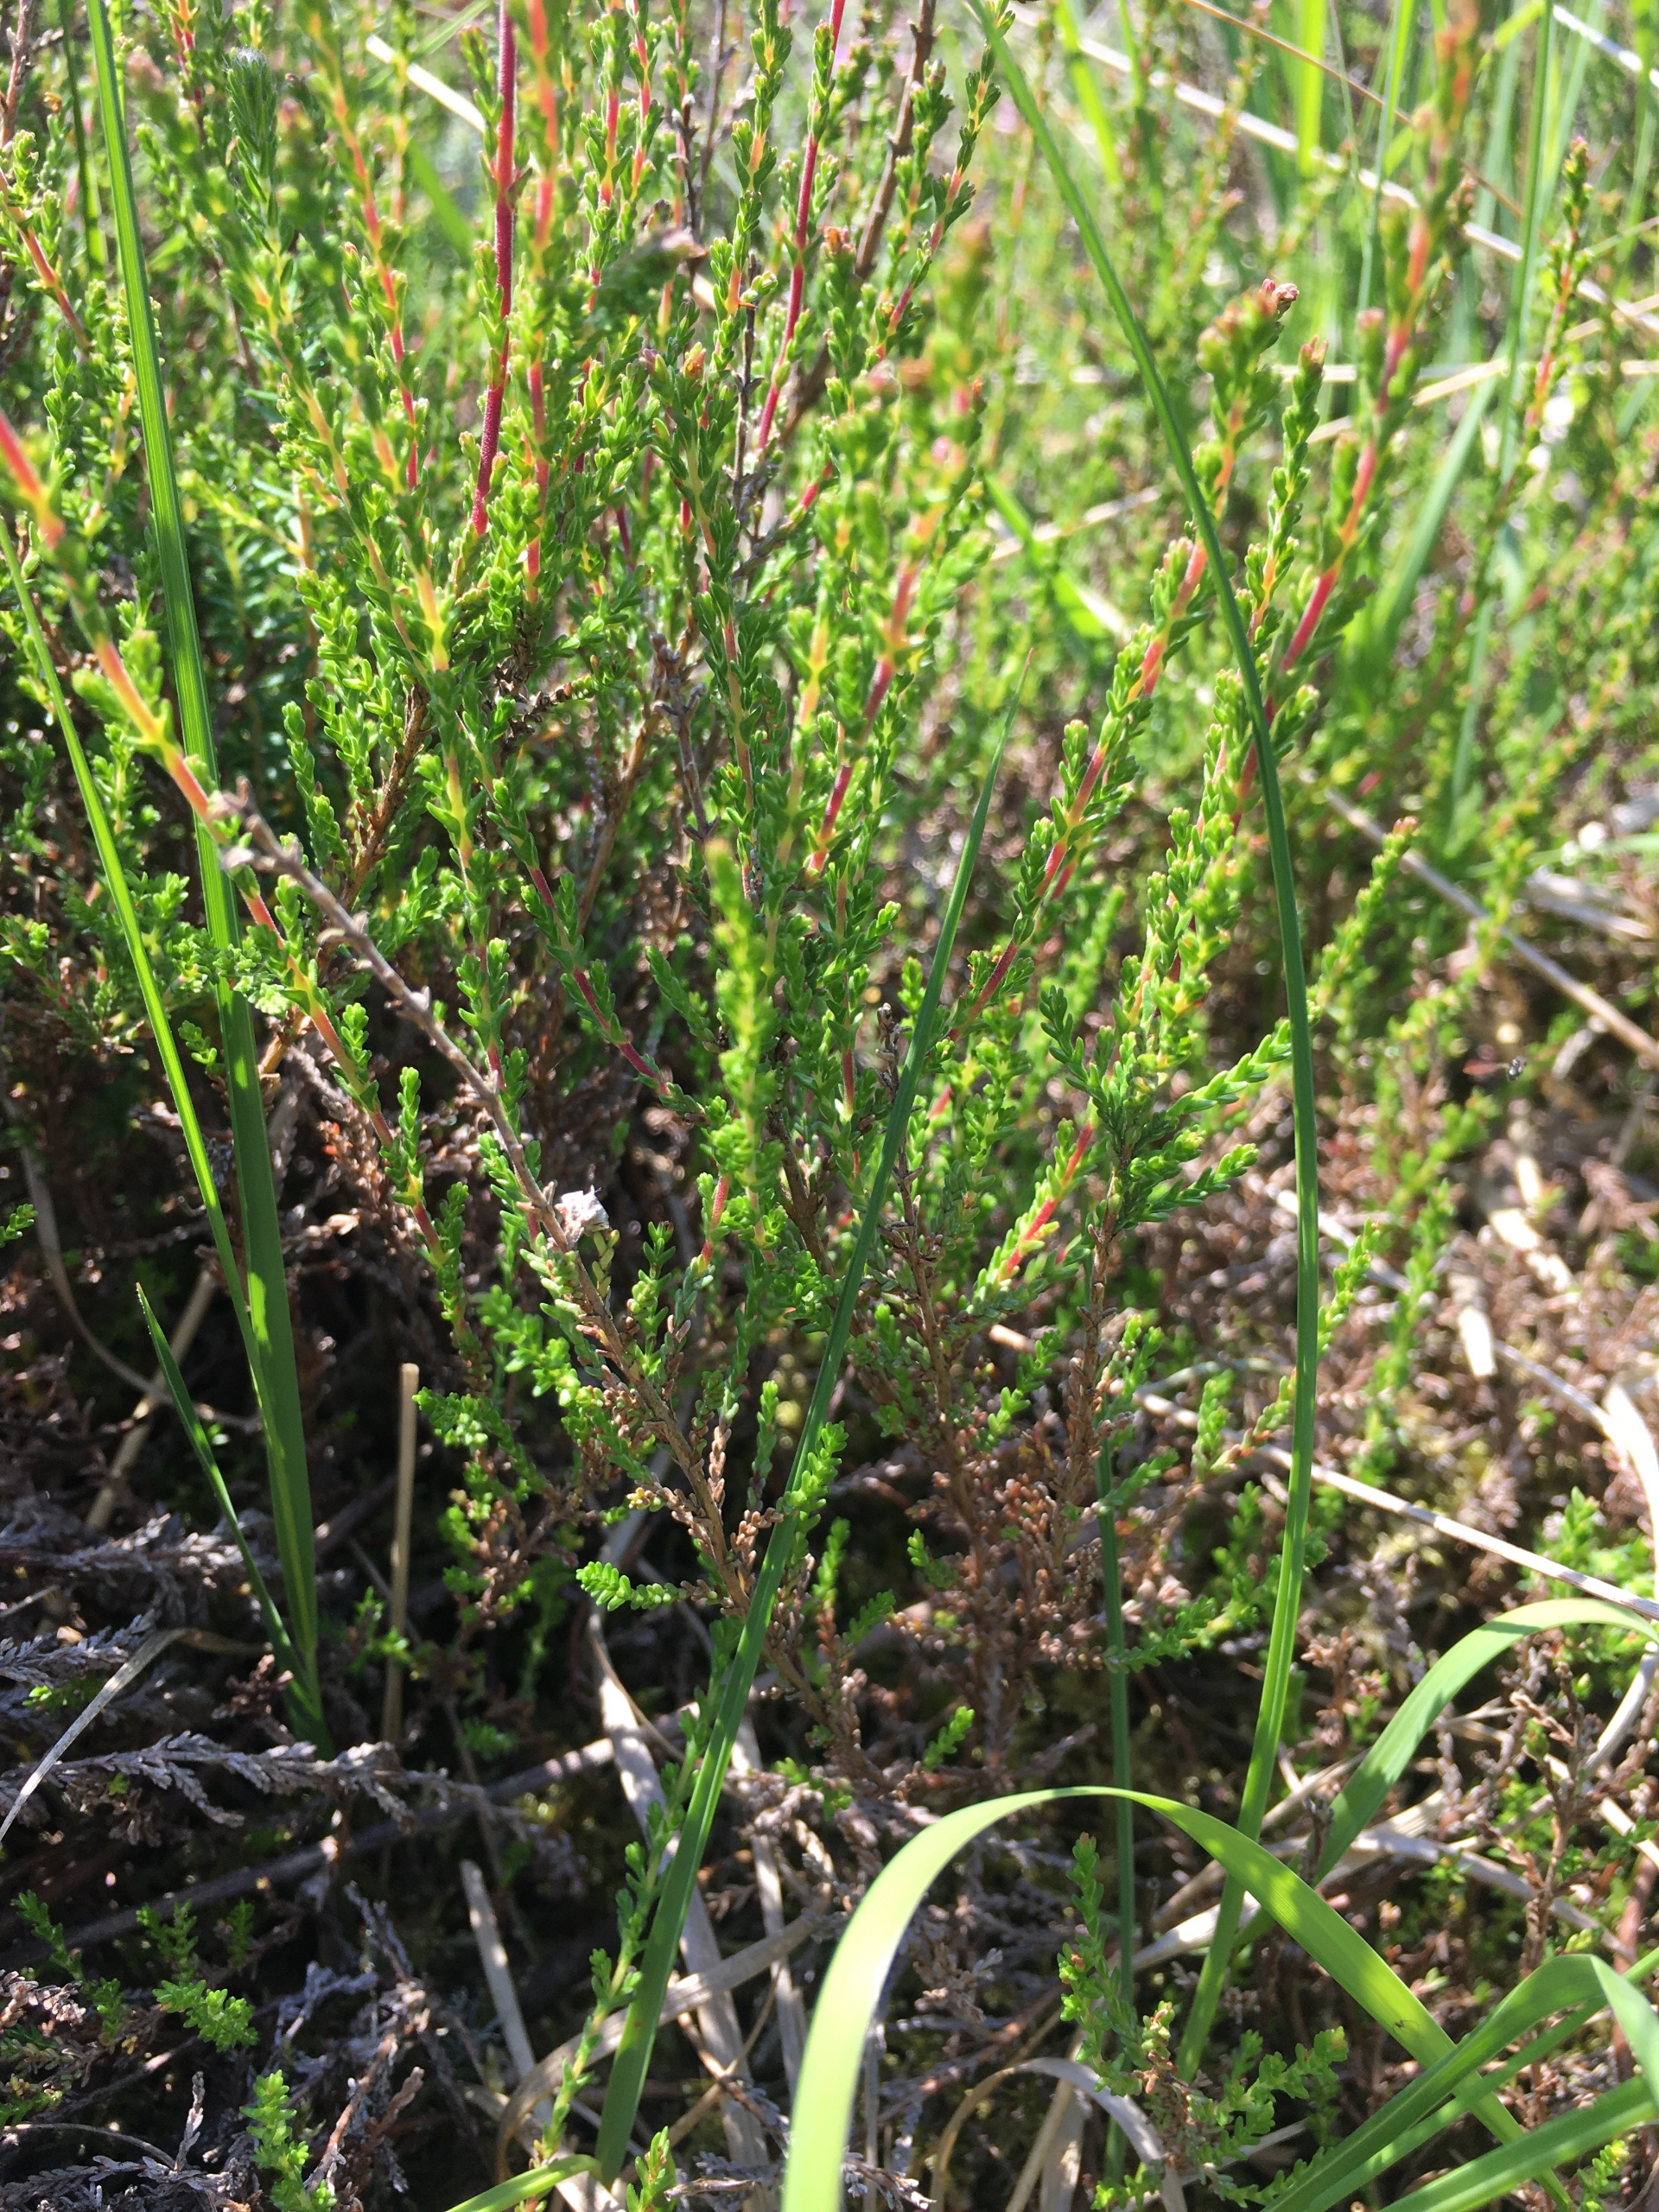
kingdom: Plantae
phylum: Tracheophyta
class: Magnoliopsida
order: Ericales
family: Ericaceae
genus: Calluna
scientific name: Calluna vulgaris
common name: Hedelyng
